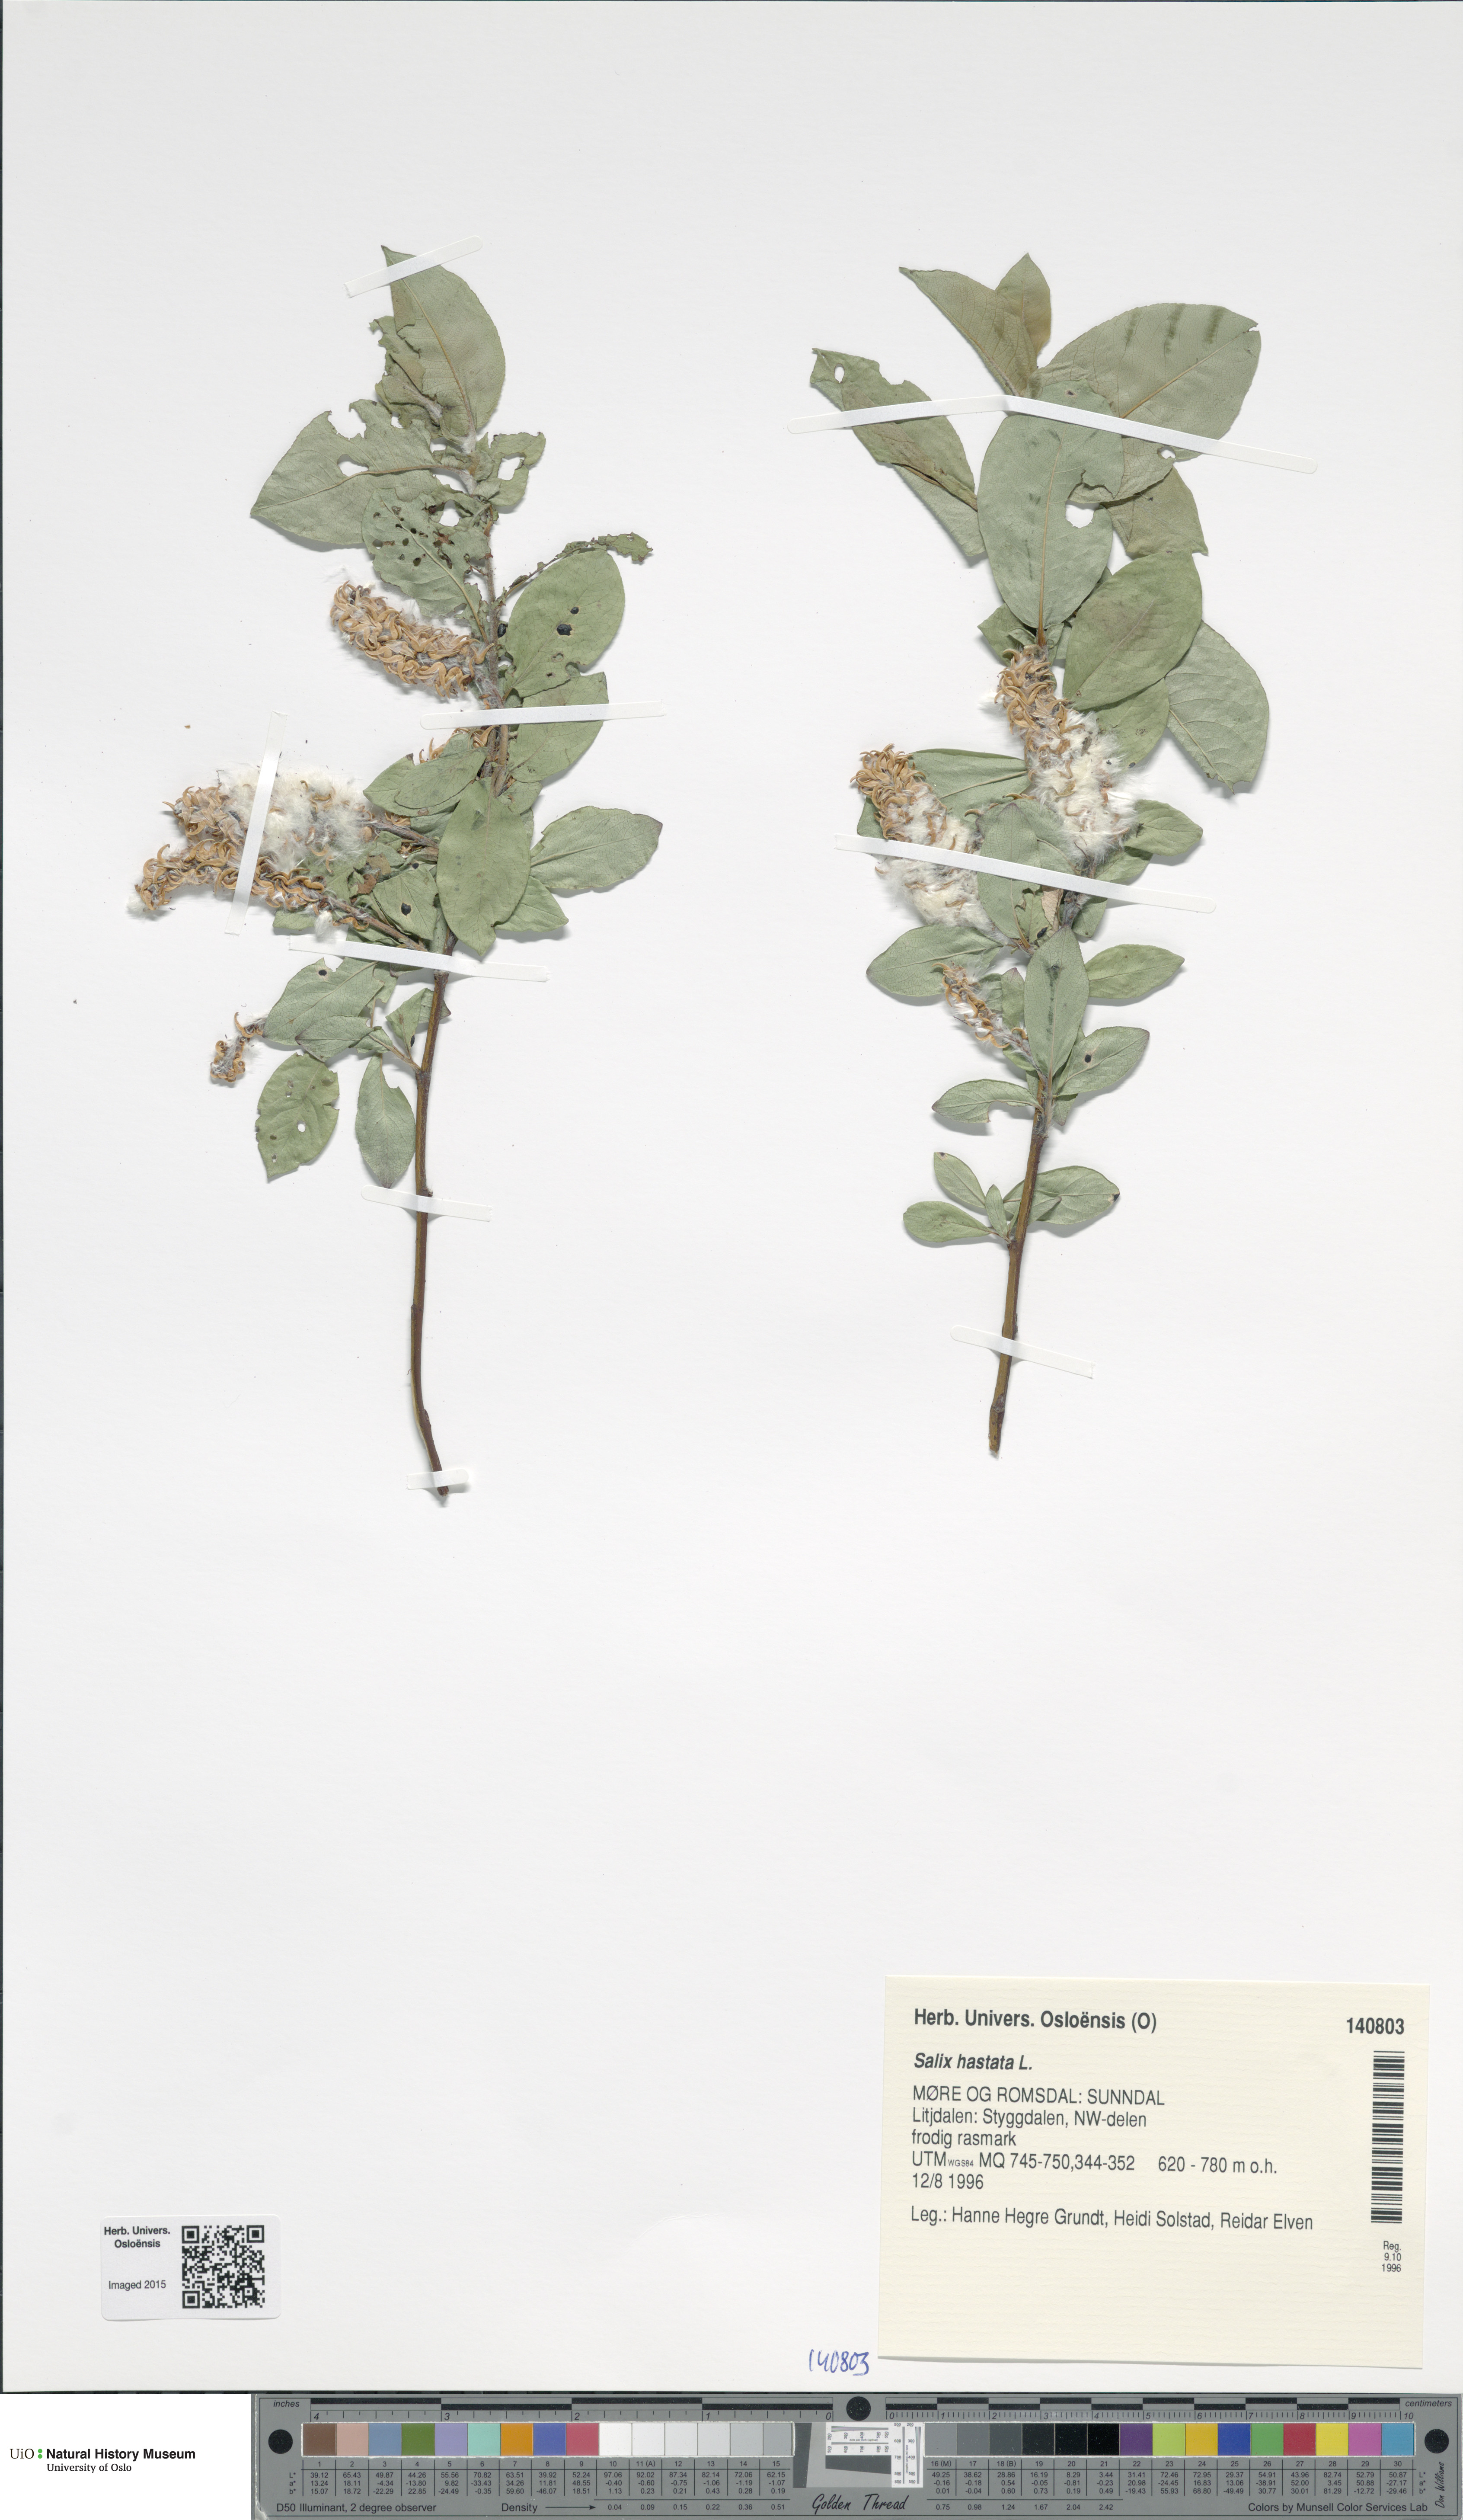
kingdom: Plantae
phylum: Tracheophyta
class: Magnoliopsida
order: Malpighiales
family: Salicaceae
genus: Salix
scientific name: Salix hastata
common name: Halberd willow
